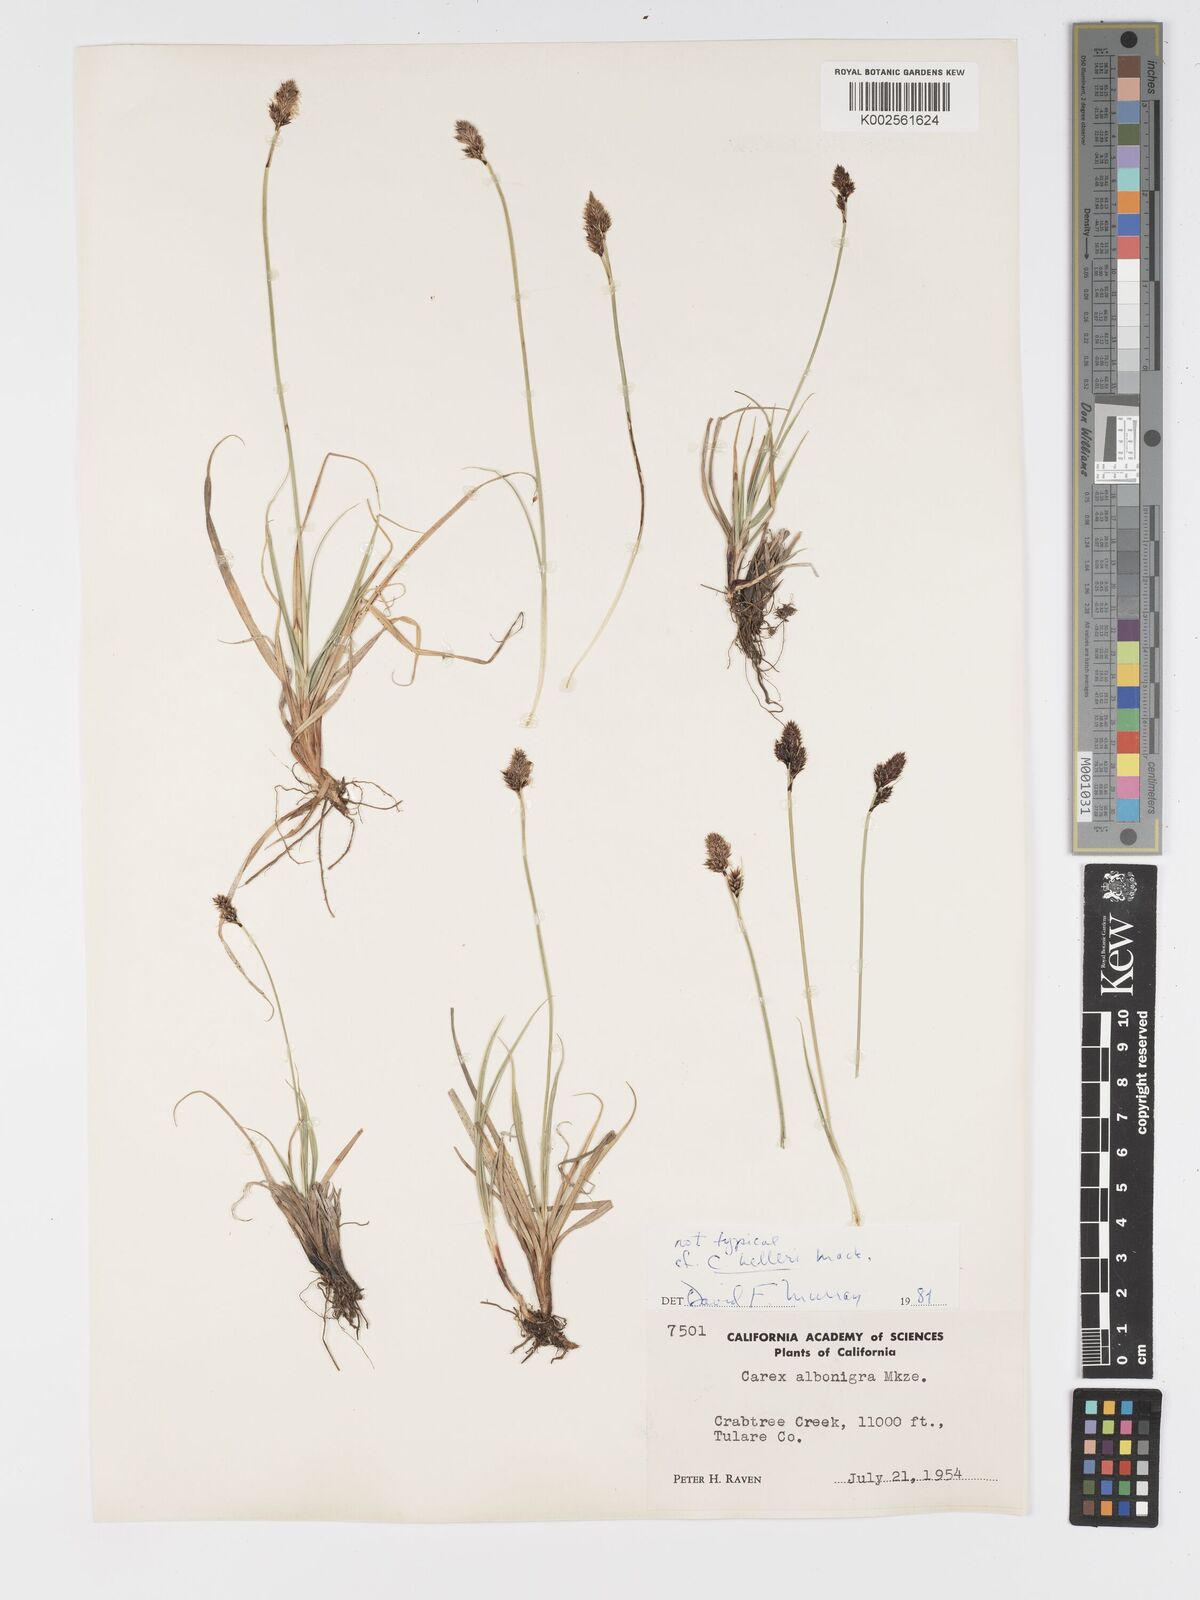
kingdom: Plantae
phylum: Tracheophyta
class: Liliopsida
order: Poales
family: Cyperaceae
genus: Carex
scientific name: Carex helleri
